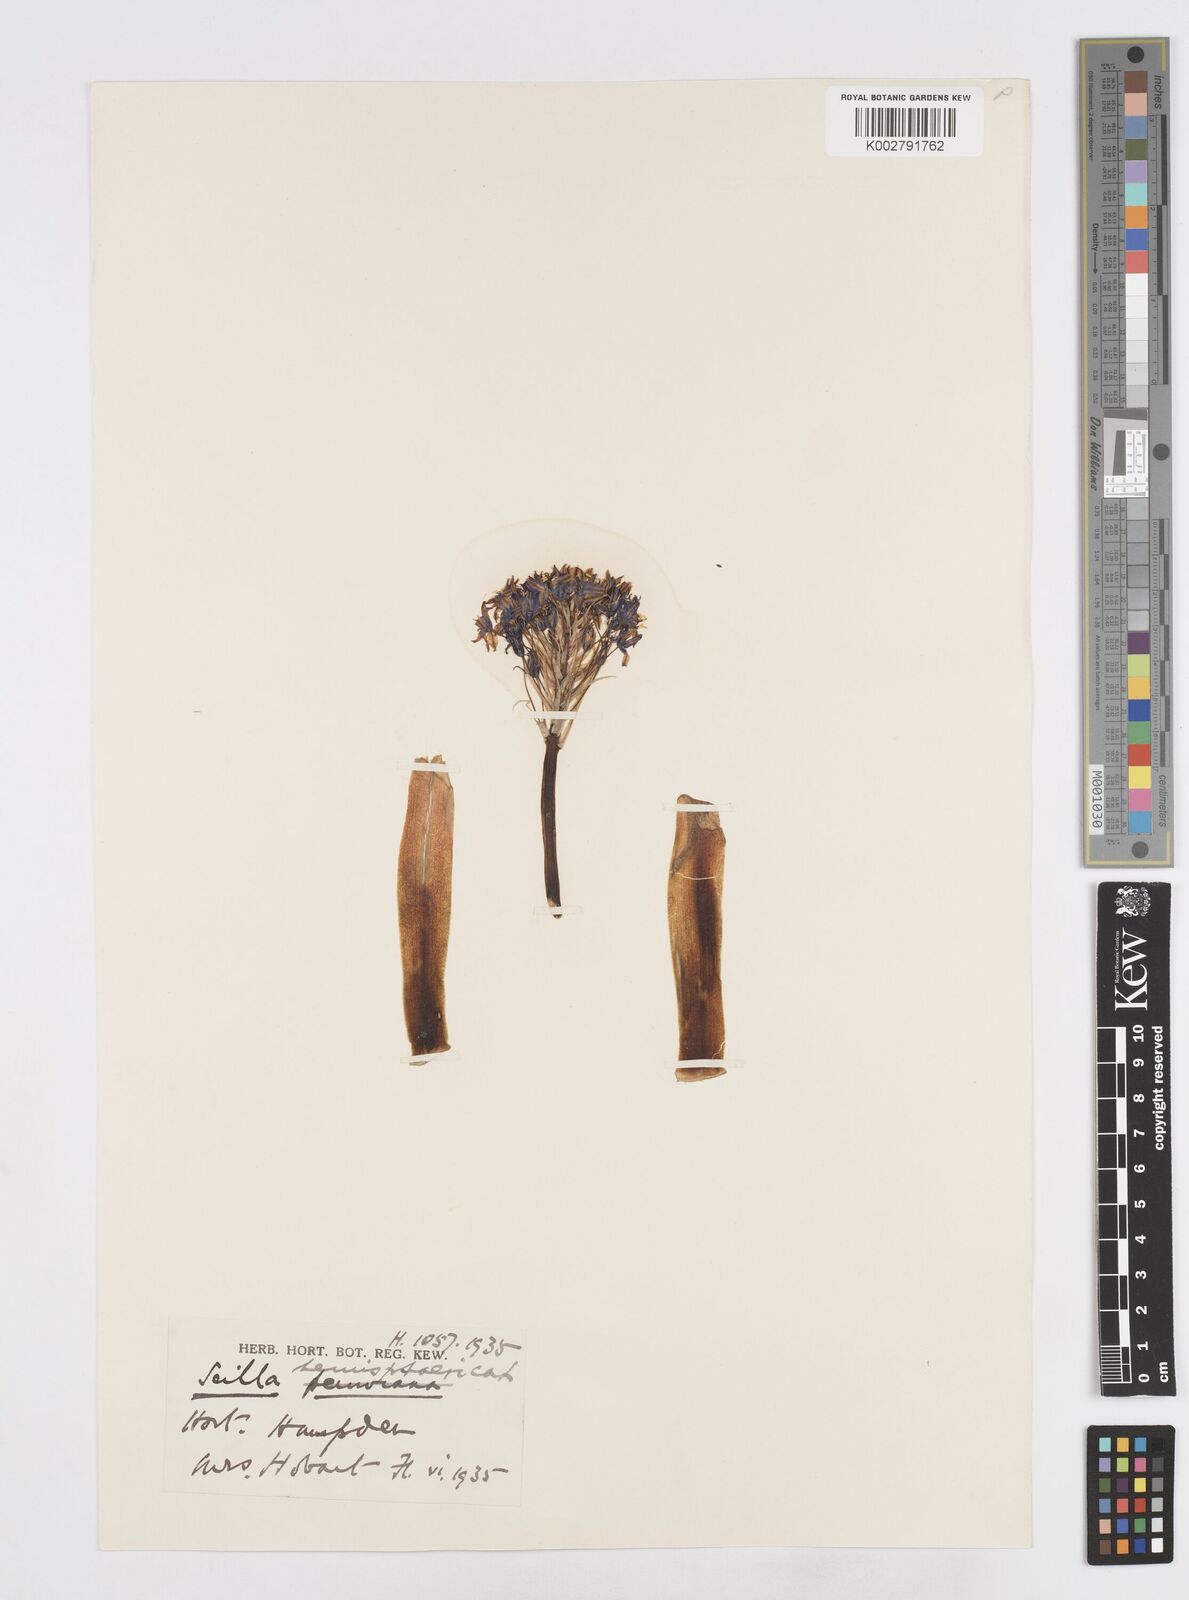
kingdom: Plantae
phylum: Tracheophyta
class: Liliopsida
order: Asparagales
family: Asparagaceae
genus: Scilla
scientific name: Scilla peruviana
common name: Portuguese squill
